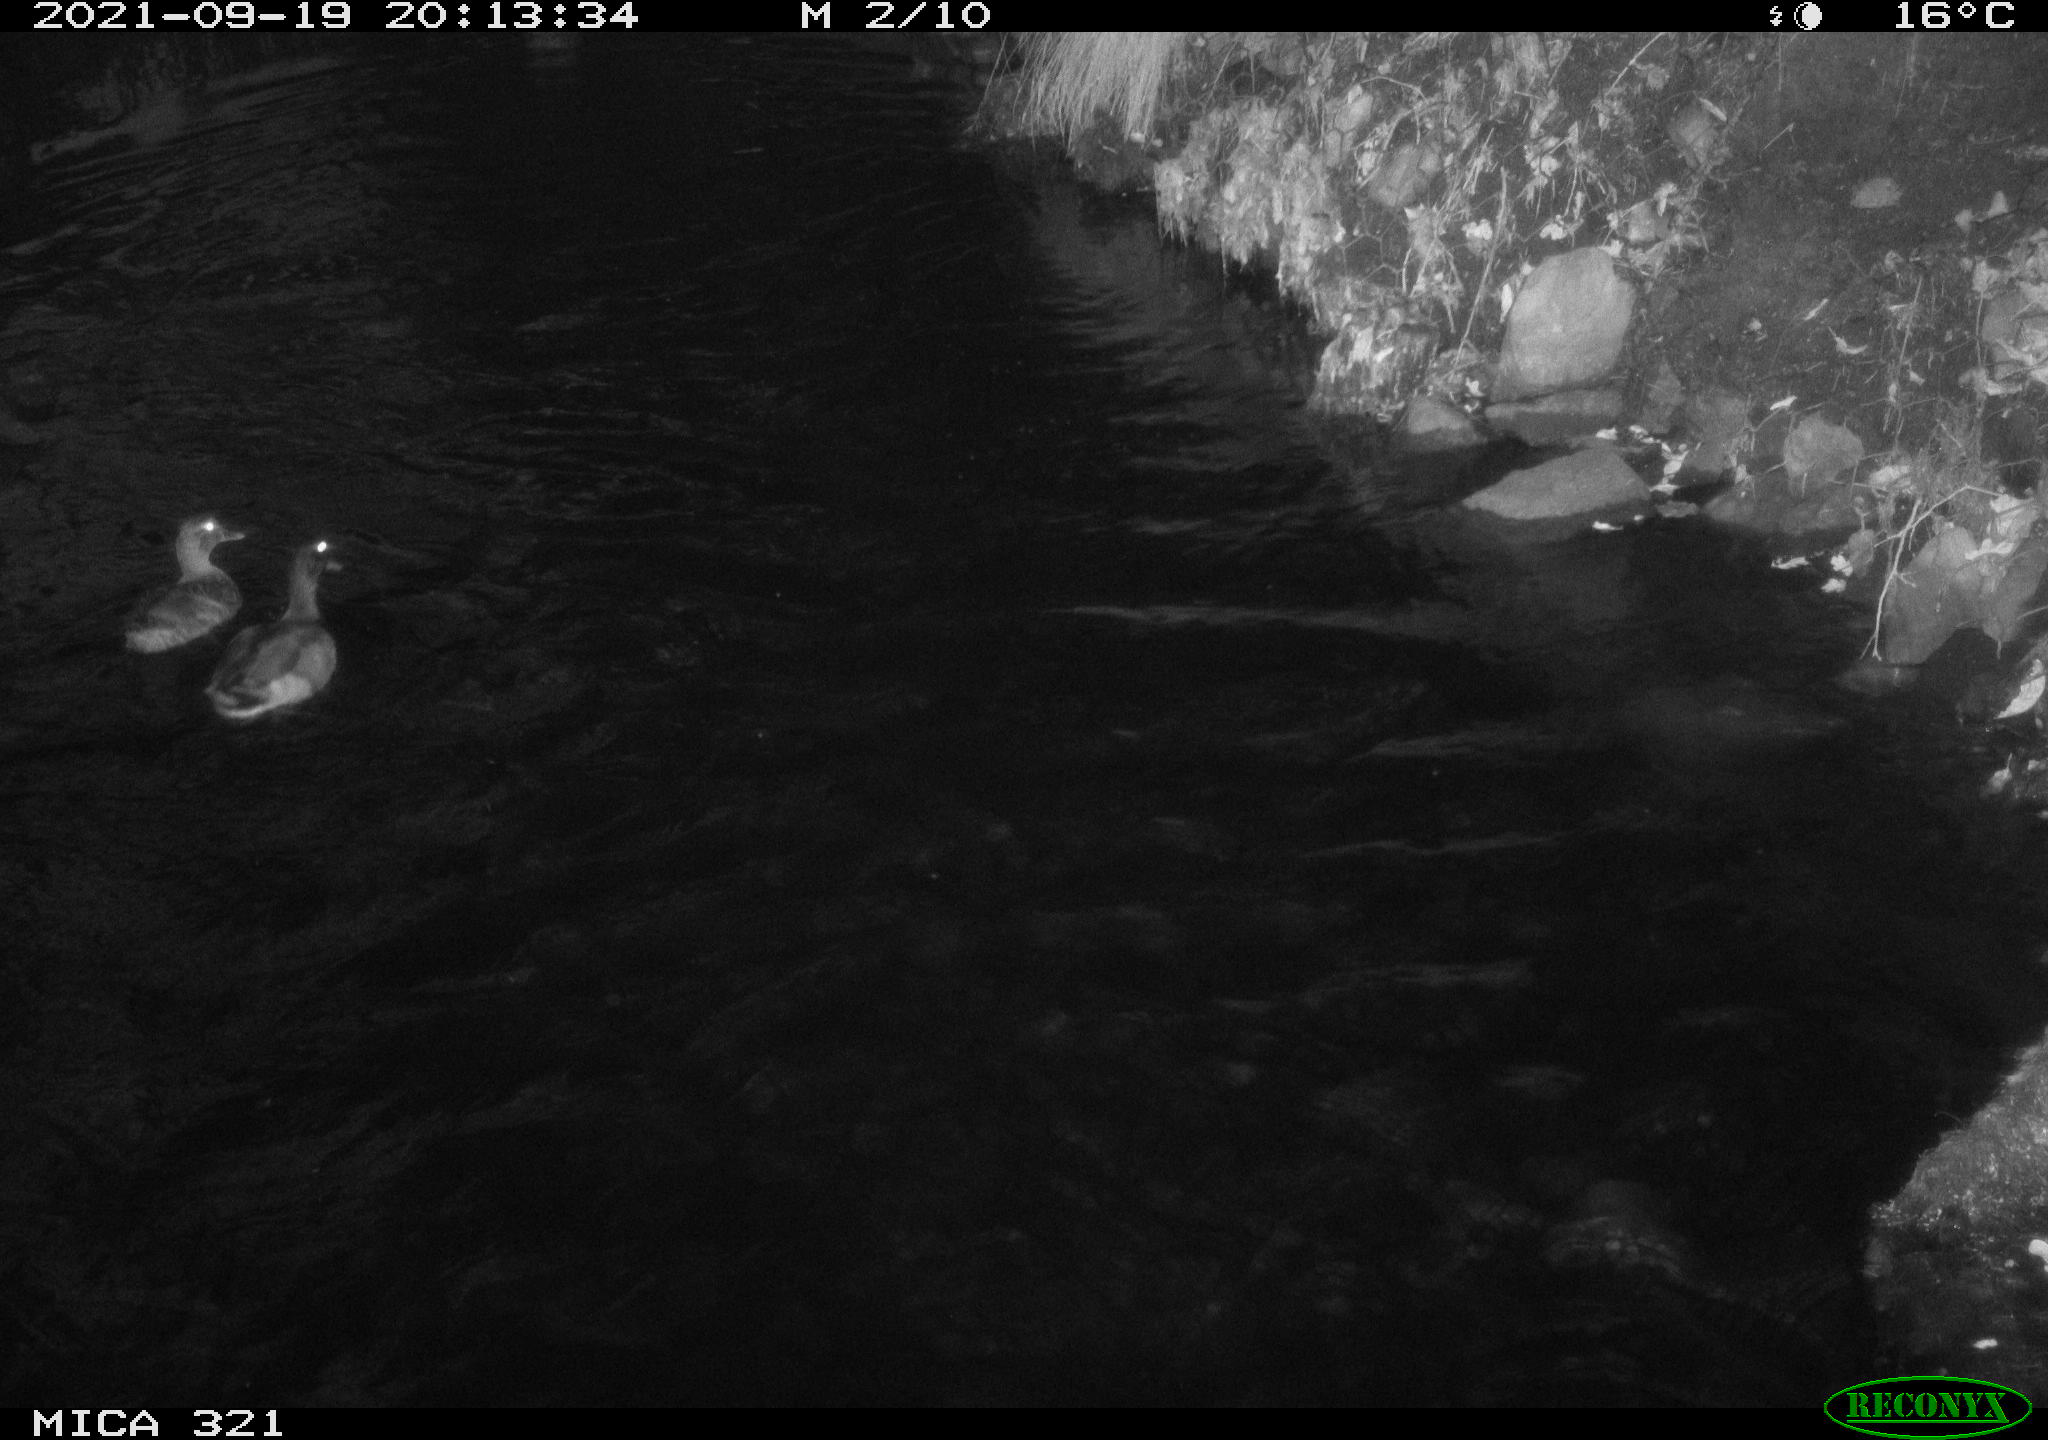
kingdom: Animalia
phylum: Chordata
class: Aves
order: Anseriformes
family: Anatidae
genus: Anas
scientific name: Anas platyrhynchos
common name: Mallard
